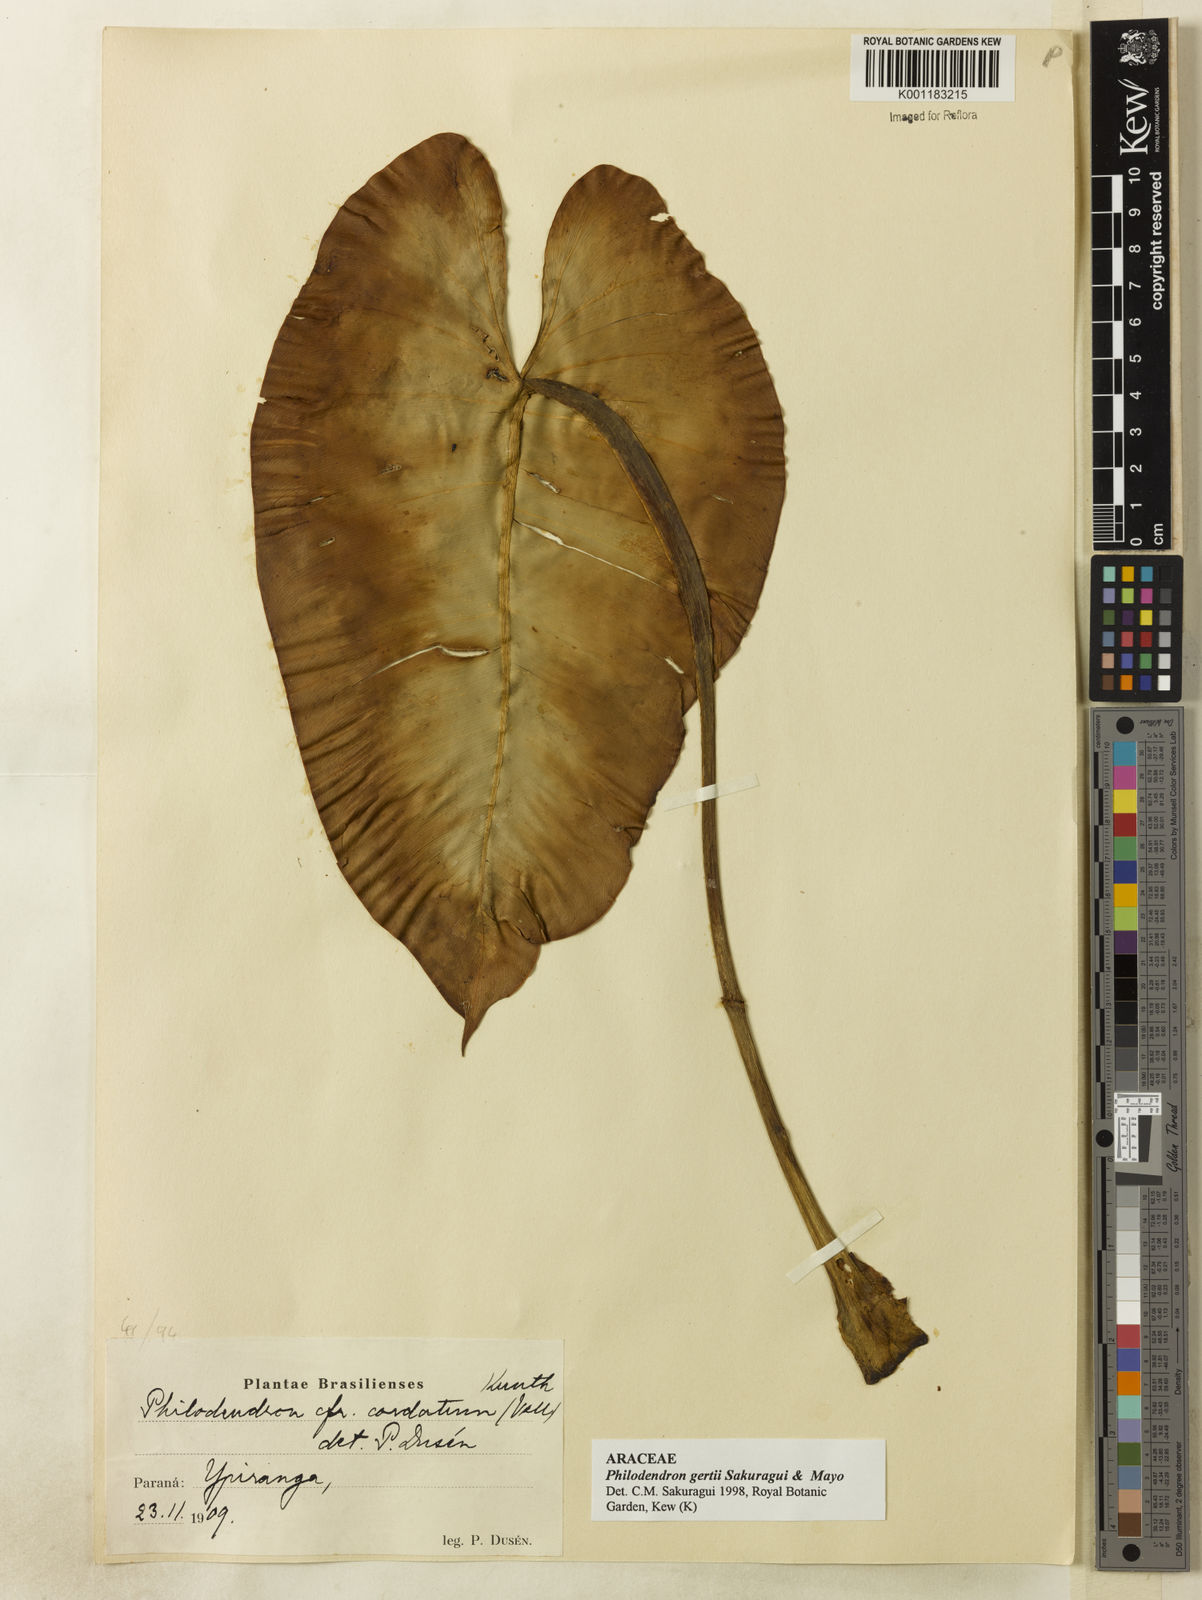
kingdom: Plantae
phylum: Tracheophyta
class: Liliopsida
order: Alismatales
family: Araceae
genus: Philodendron
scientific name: Philodendron
